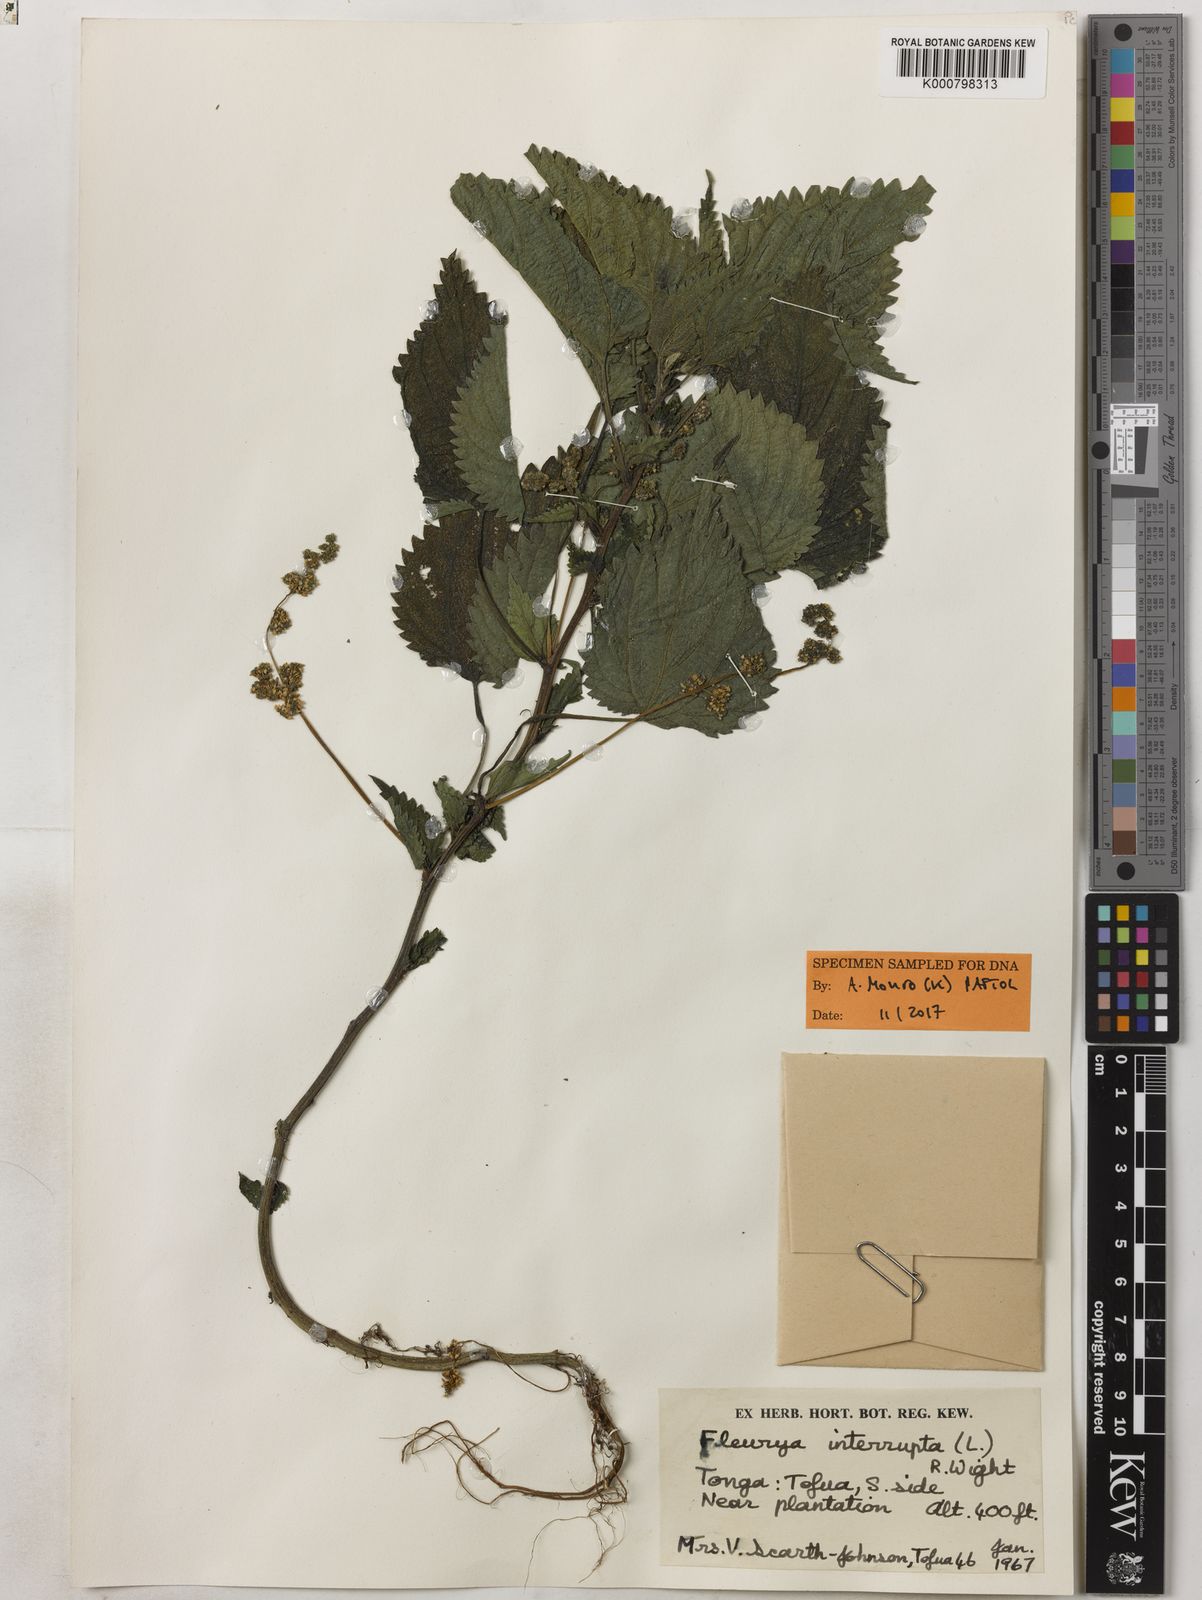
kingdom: Plantae
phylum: Tracheophyta
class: Magnoliopsida
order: Rosales
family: Urticaceae
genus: Laportea
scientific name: Laportea interrupta
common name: Hawaiian wood-nettle
